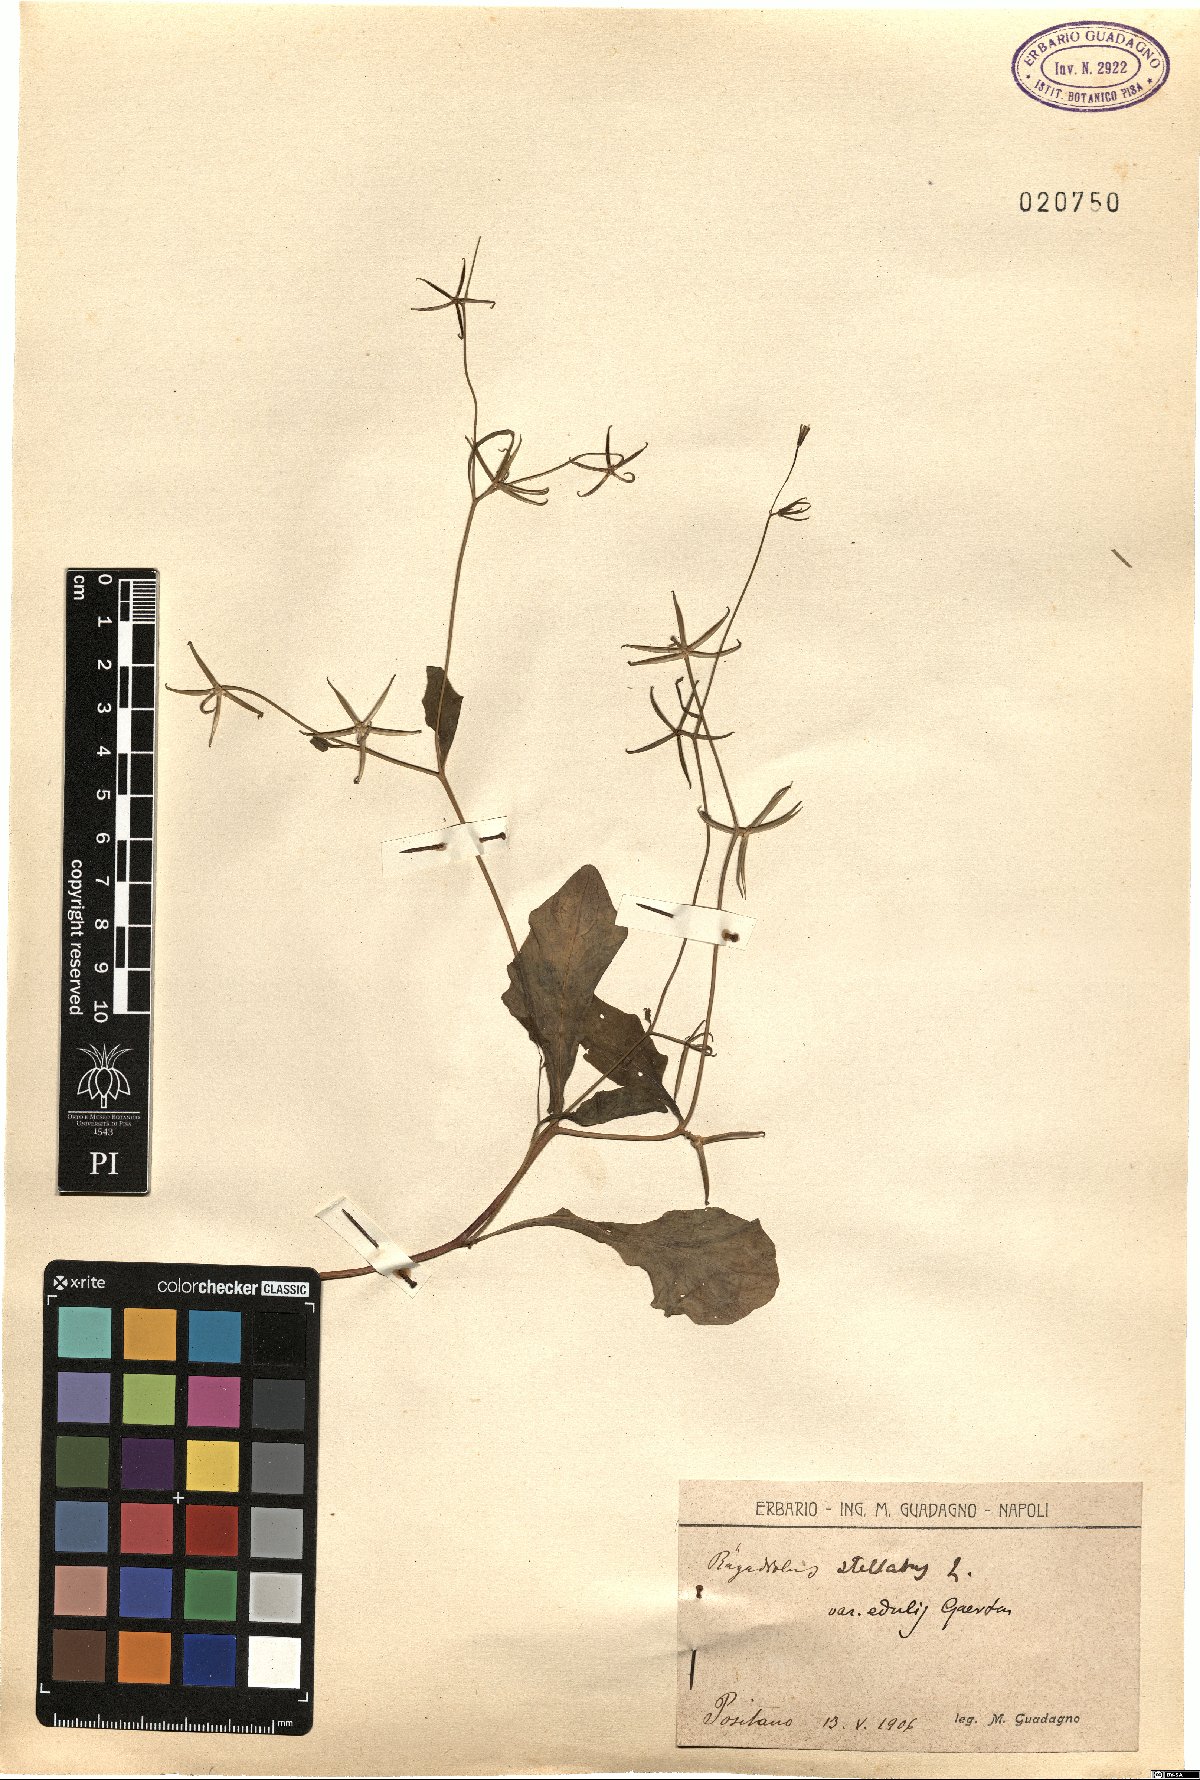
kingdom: Plantae
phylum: Tracheophyta
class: Magnoliopsida
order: Asterales
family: Asteraceae
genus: Rhagadiolus
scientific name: Rhagadiolus edulis
